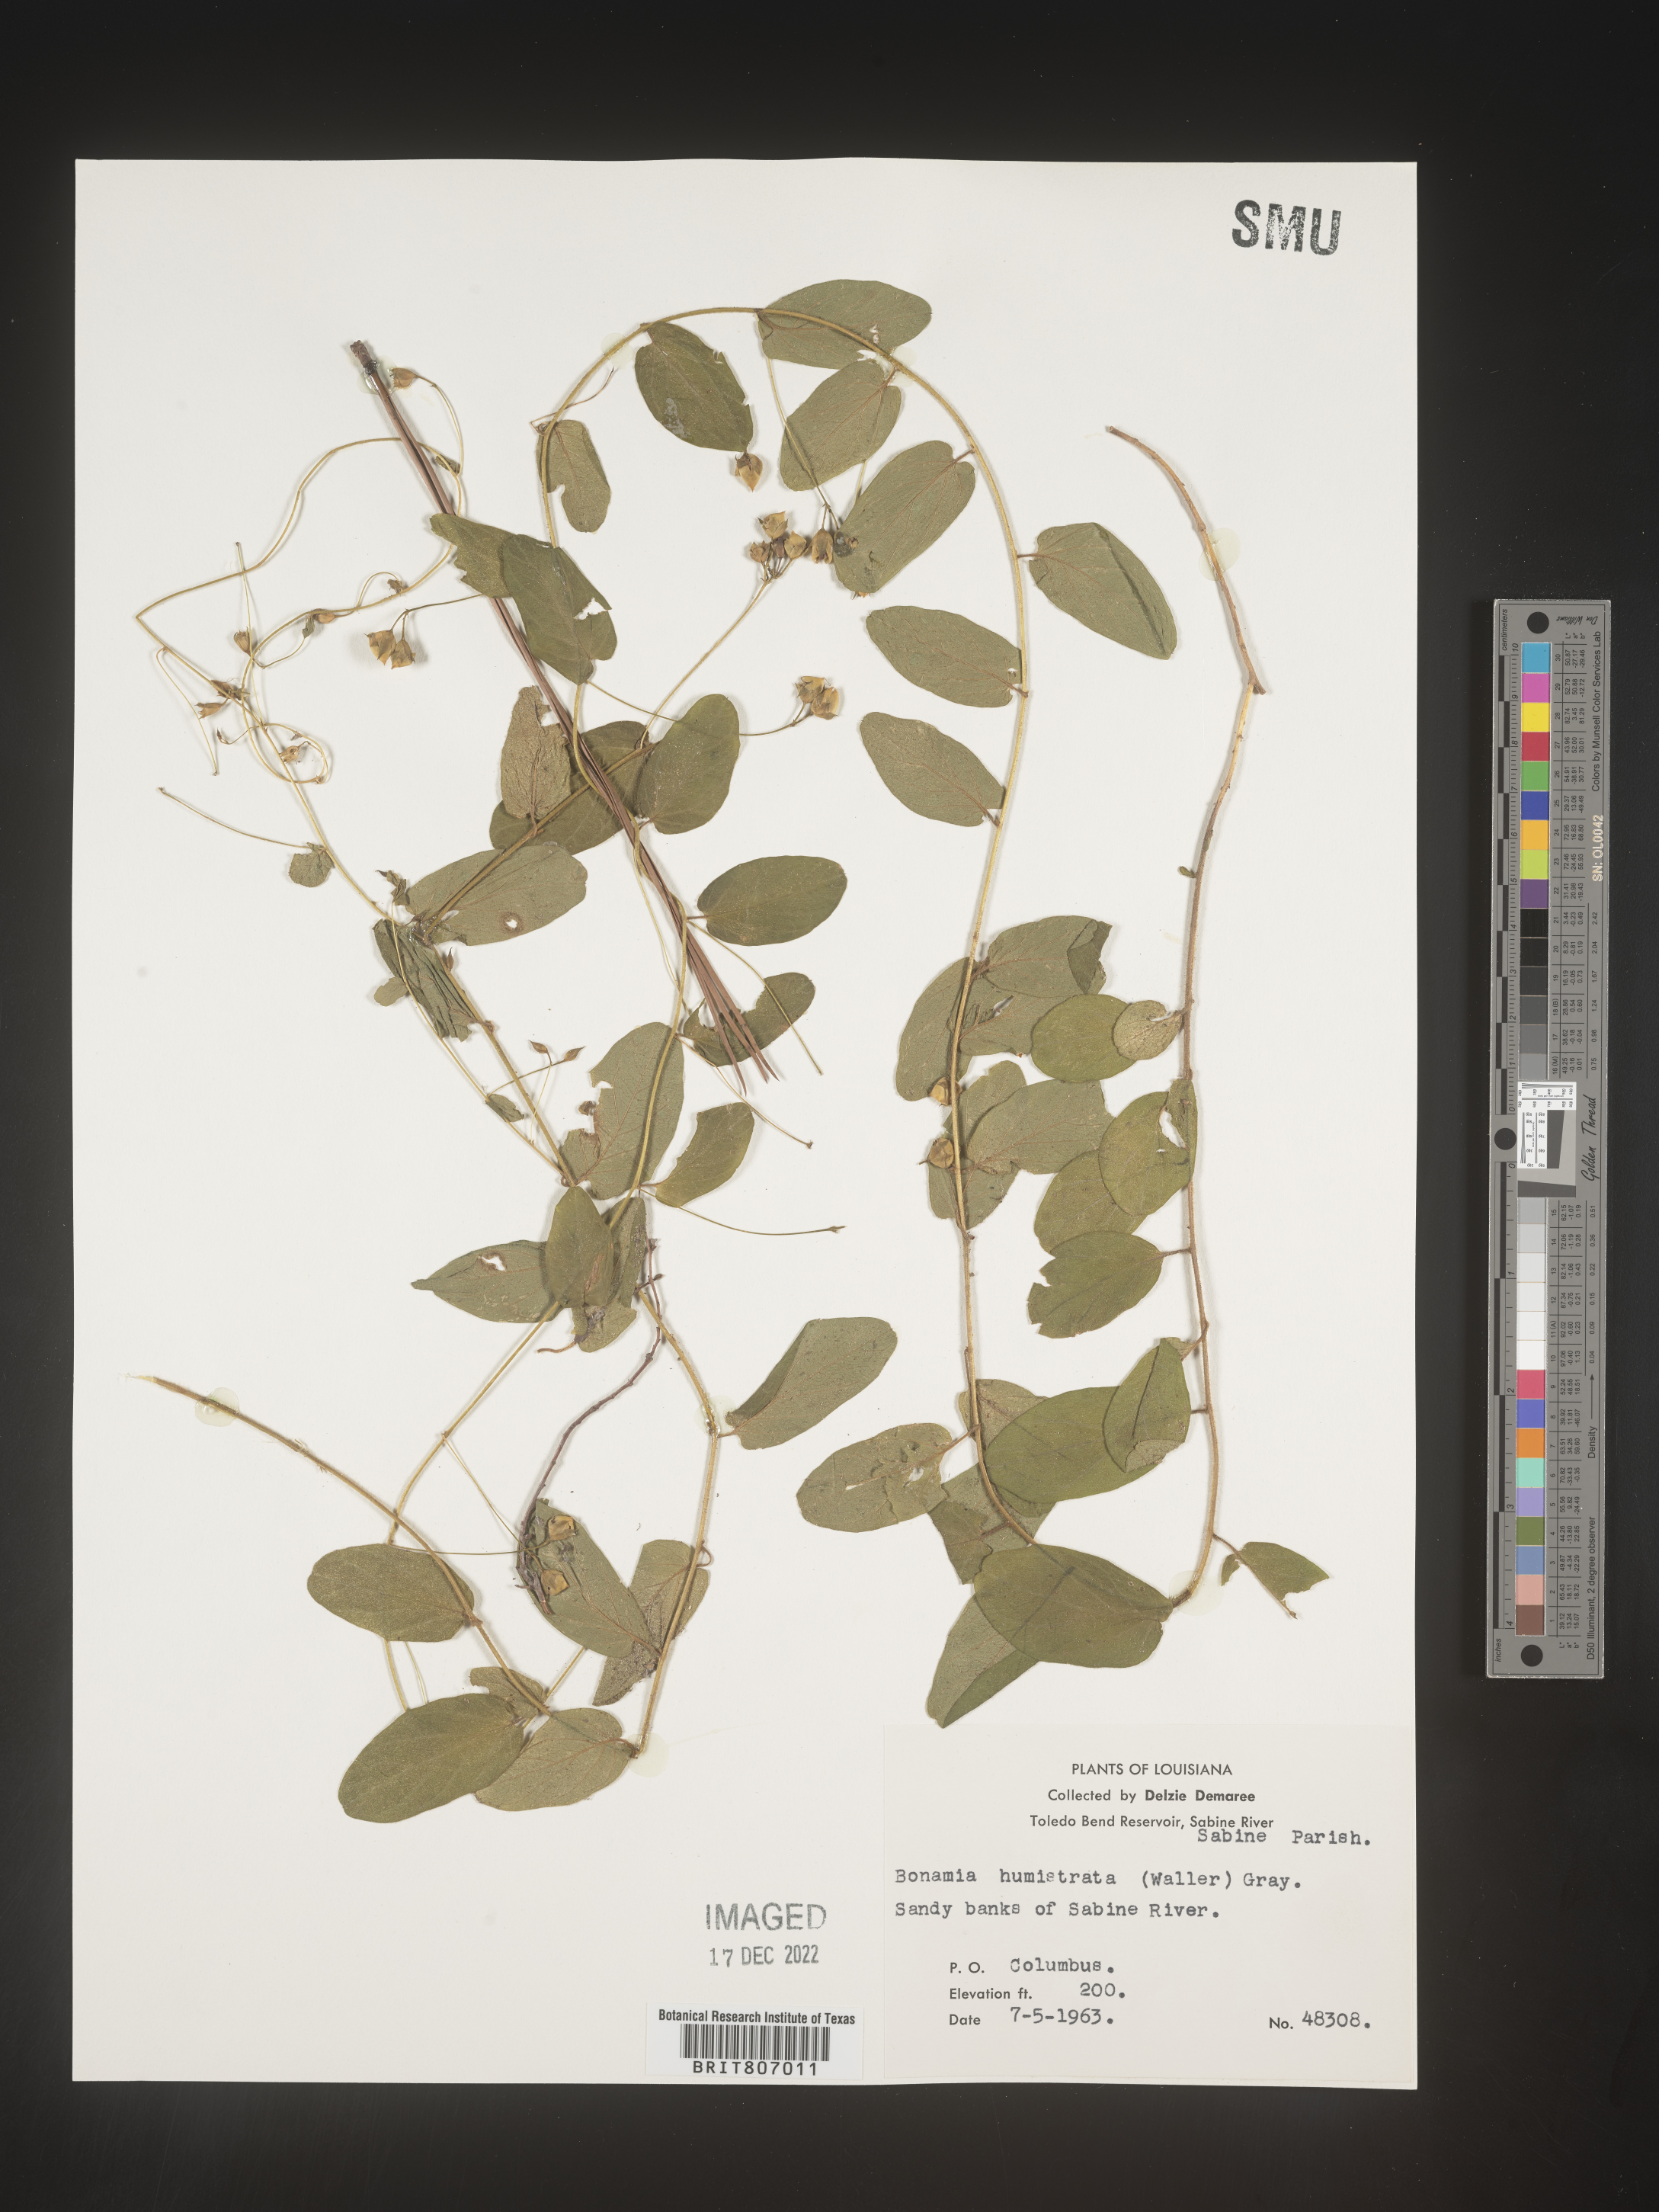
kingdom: Plantae
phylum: Tracheophyta
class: Magnoliopsida
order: Solanales
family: Convolvulaceae
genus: Stylisma
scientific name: Stylisma humistrata
